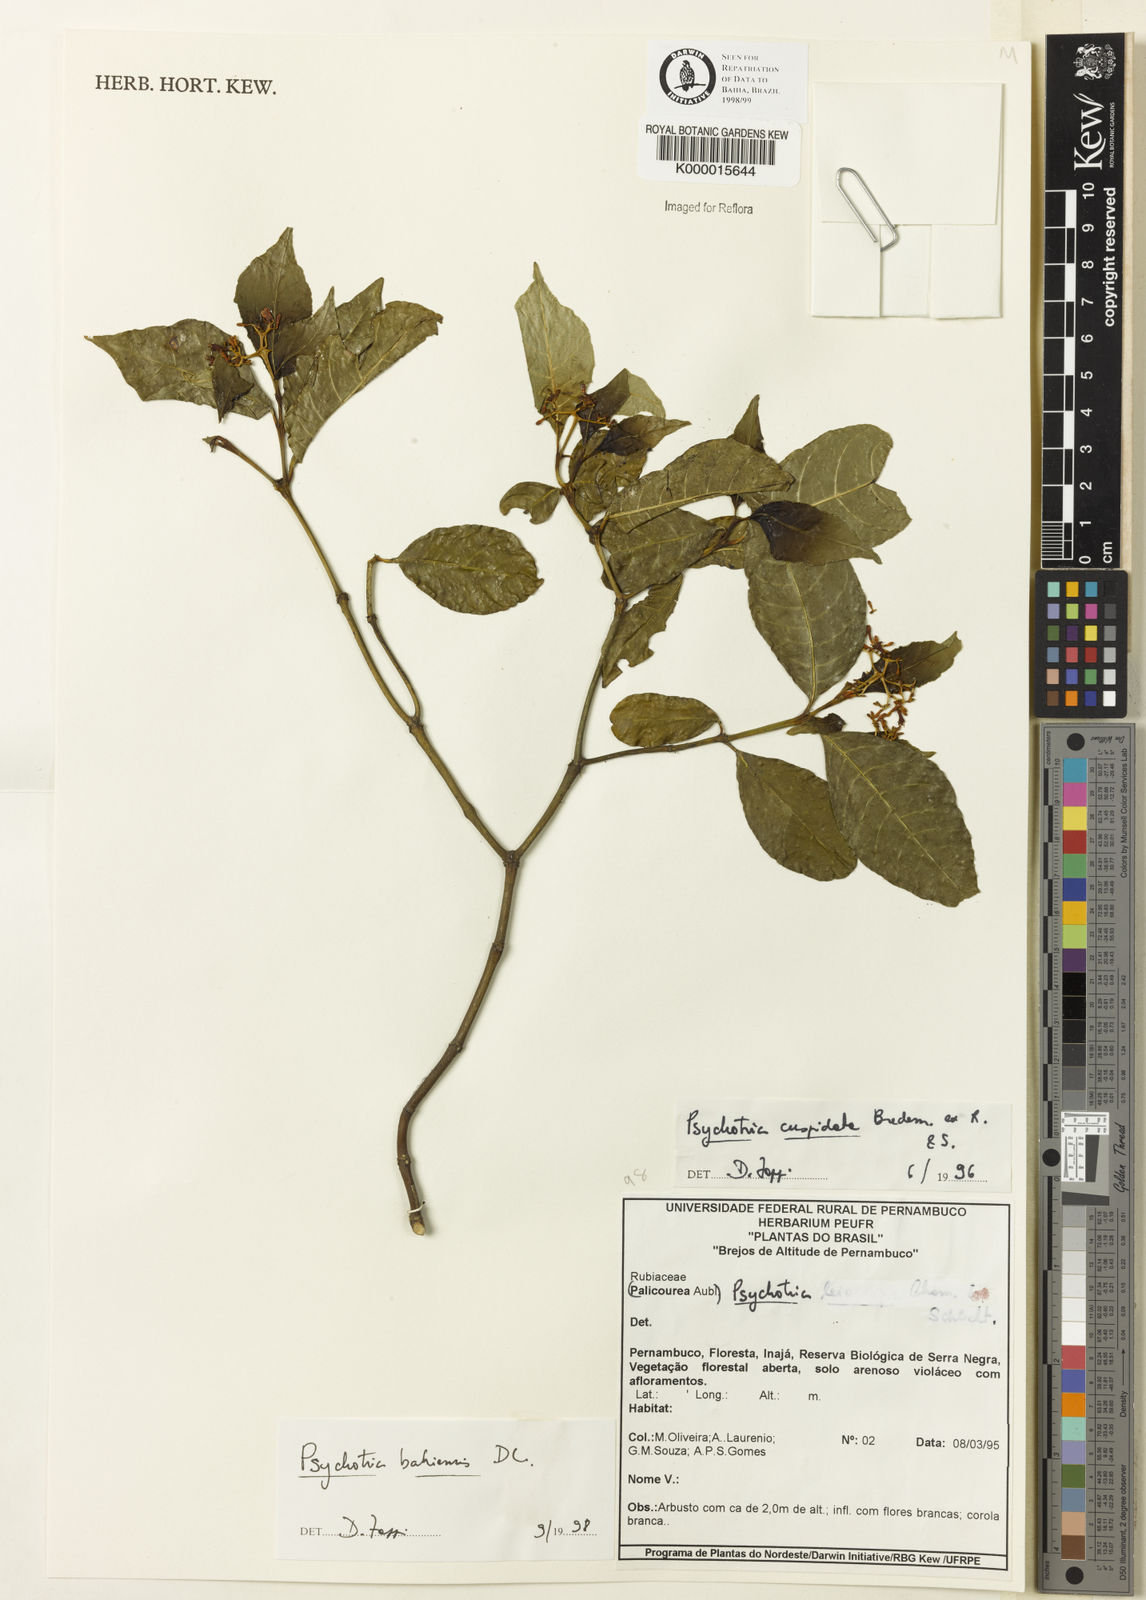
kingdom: Plantae
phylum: Tracheophyta
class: Magnoliopsida
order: Gentianales
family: Rubiaceae
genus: Psychotria
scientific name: Psychotria bahiensis
